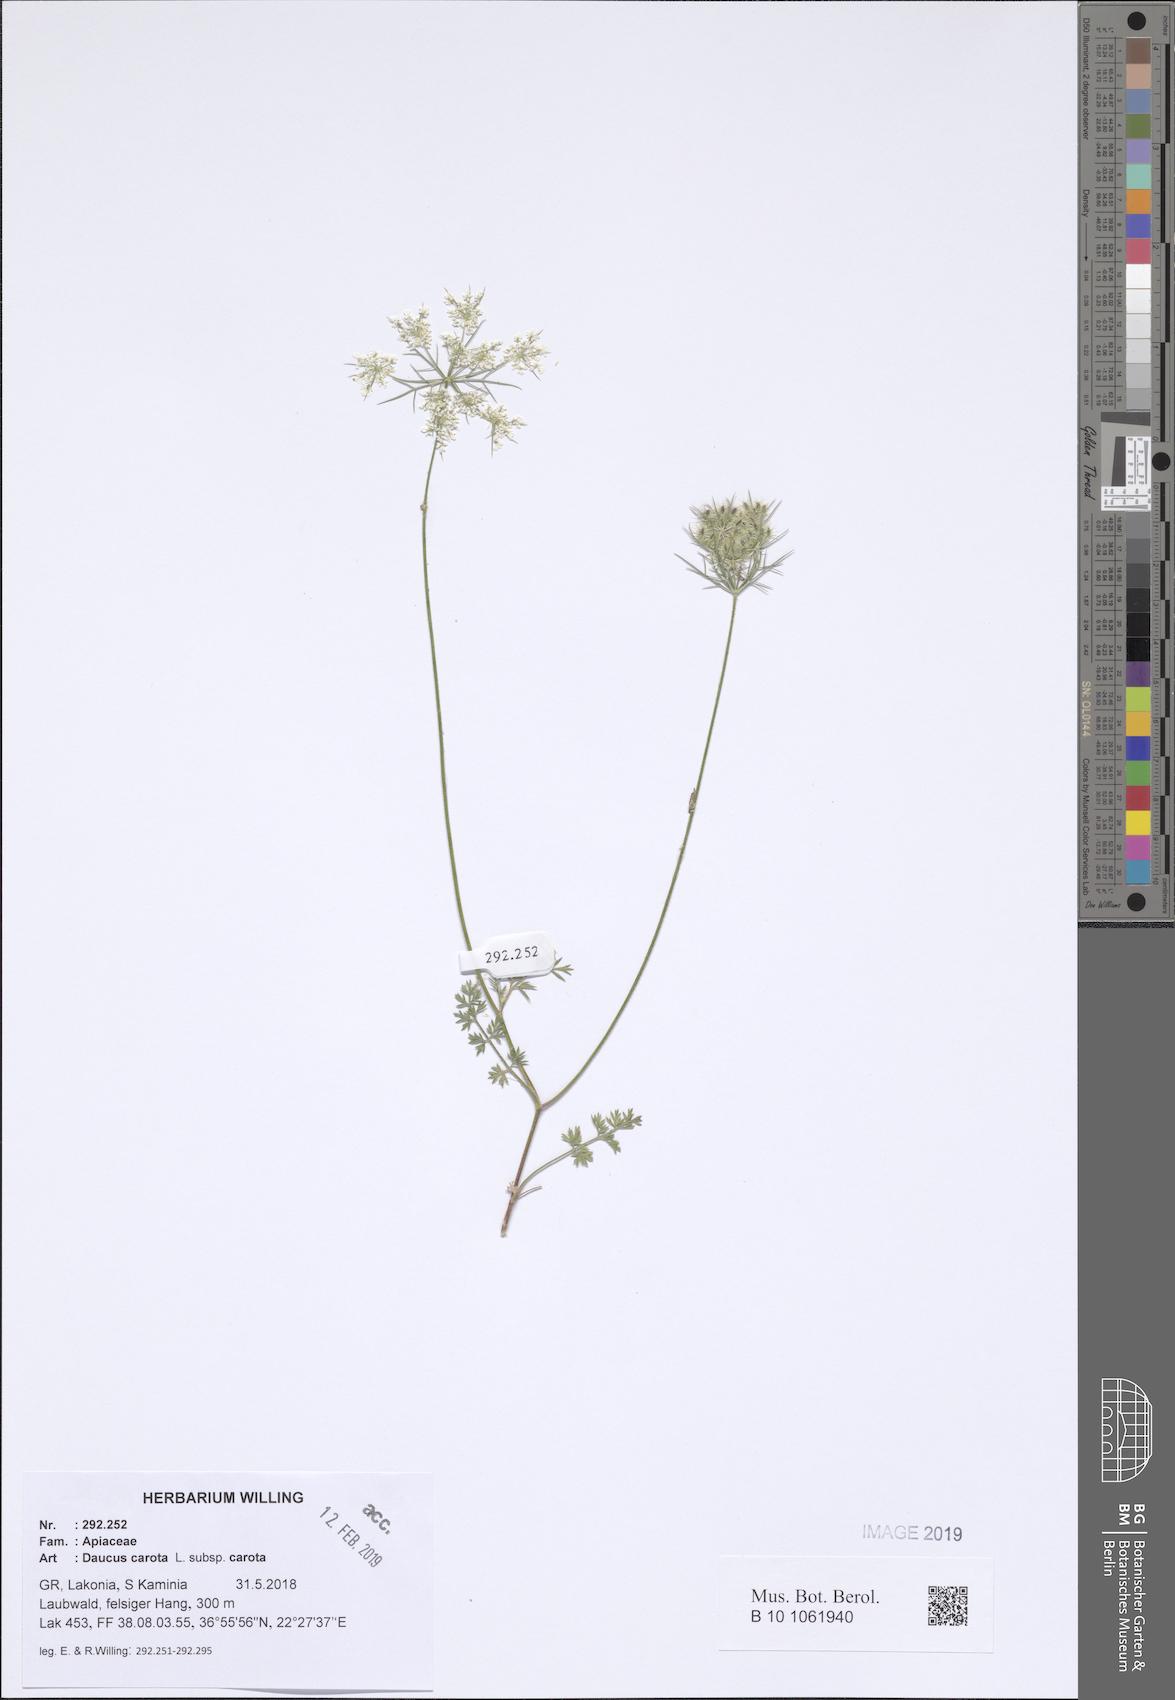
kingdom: Plantae
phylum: Tracheophyta
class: Magnoliopsida
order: Apiales
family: Apiaceae
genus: Daucus
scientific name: Daucus carota
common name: Wild carrot
